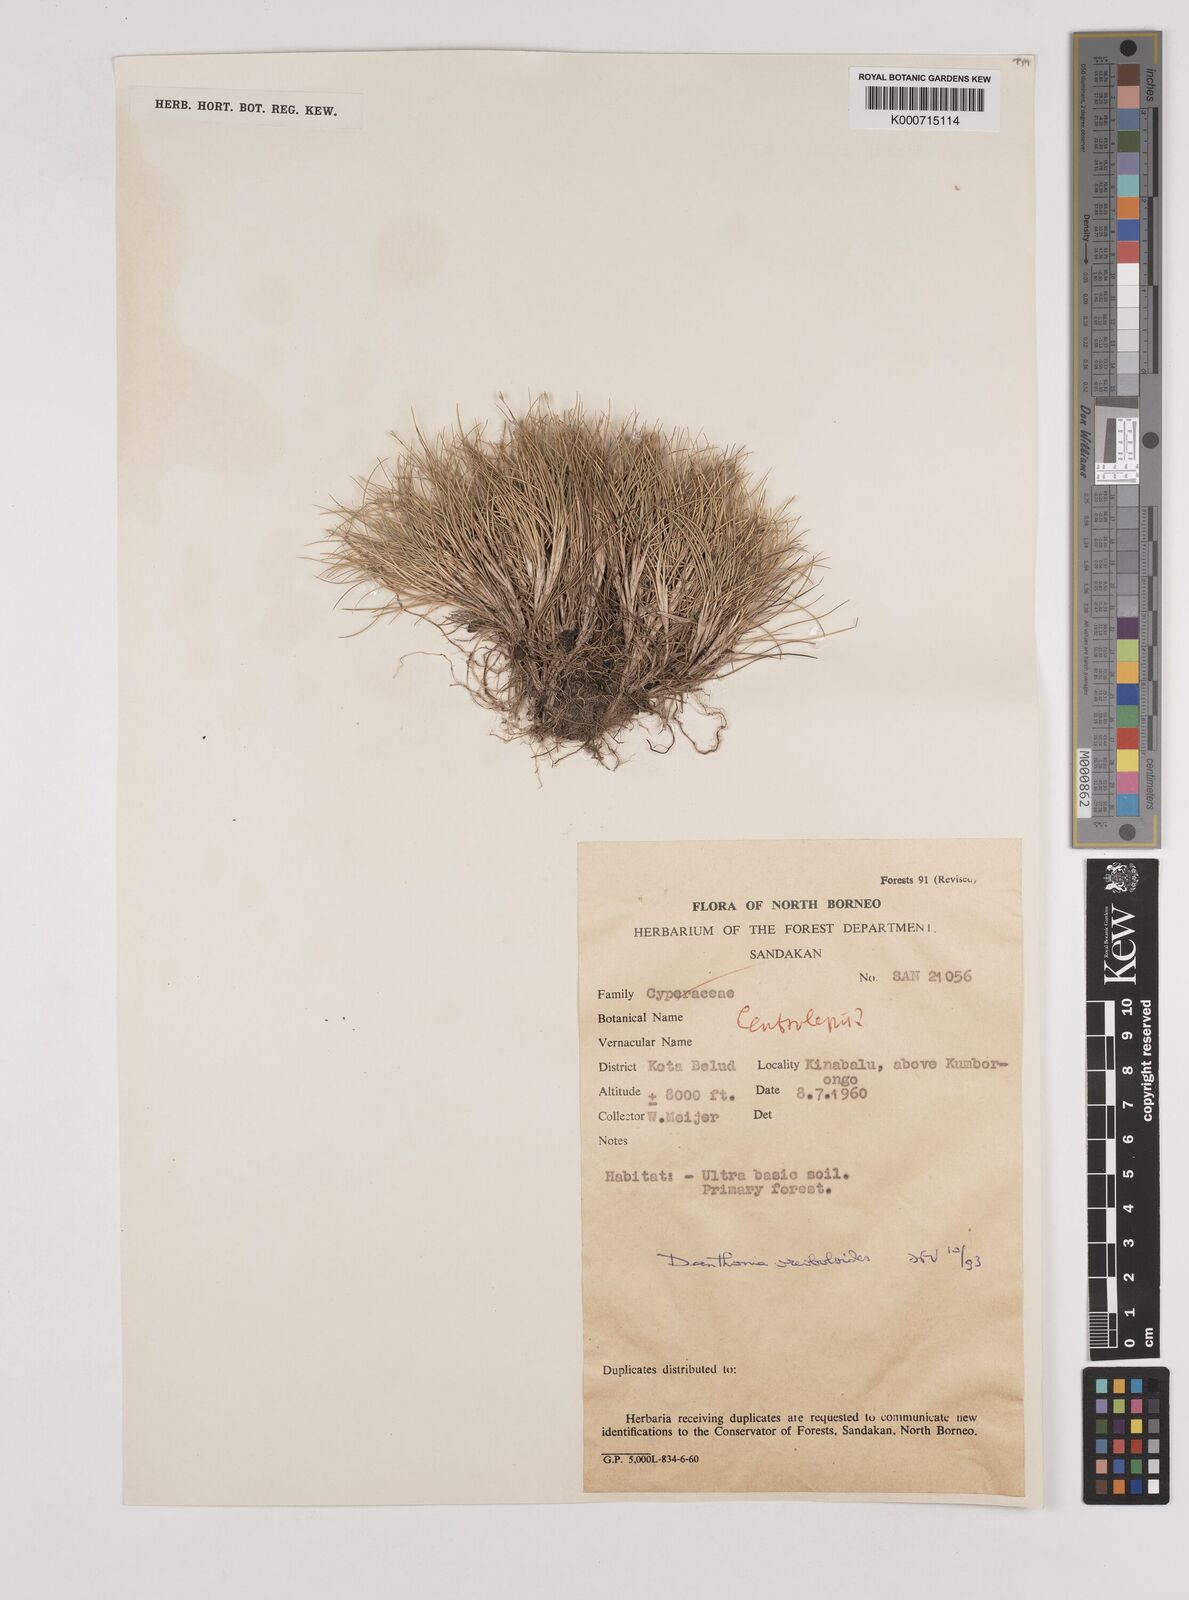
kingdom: Plantae
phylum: Tracheophyta
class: Liliopsida
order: Poales
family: Poaceae
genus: Rytidosperma
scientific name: Rytidosperma oreoboloides
